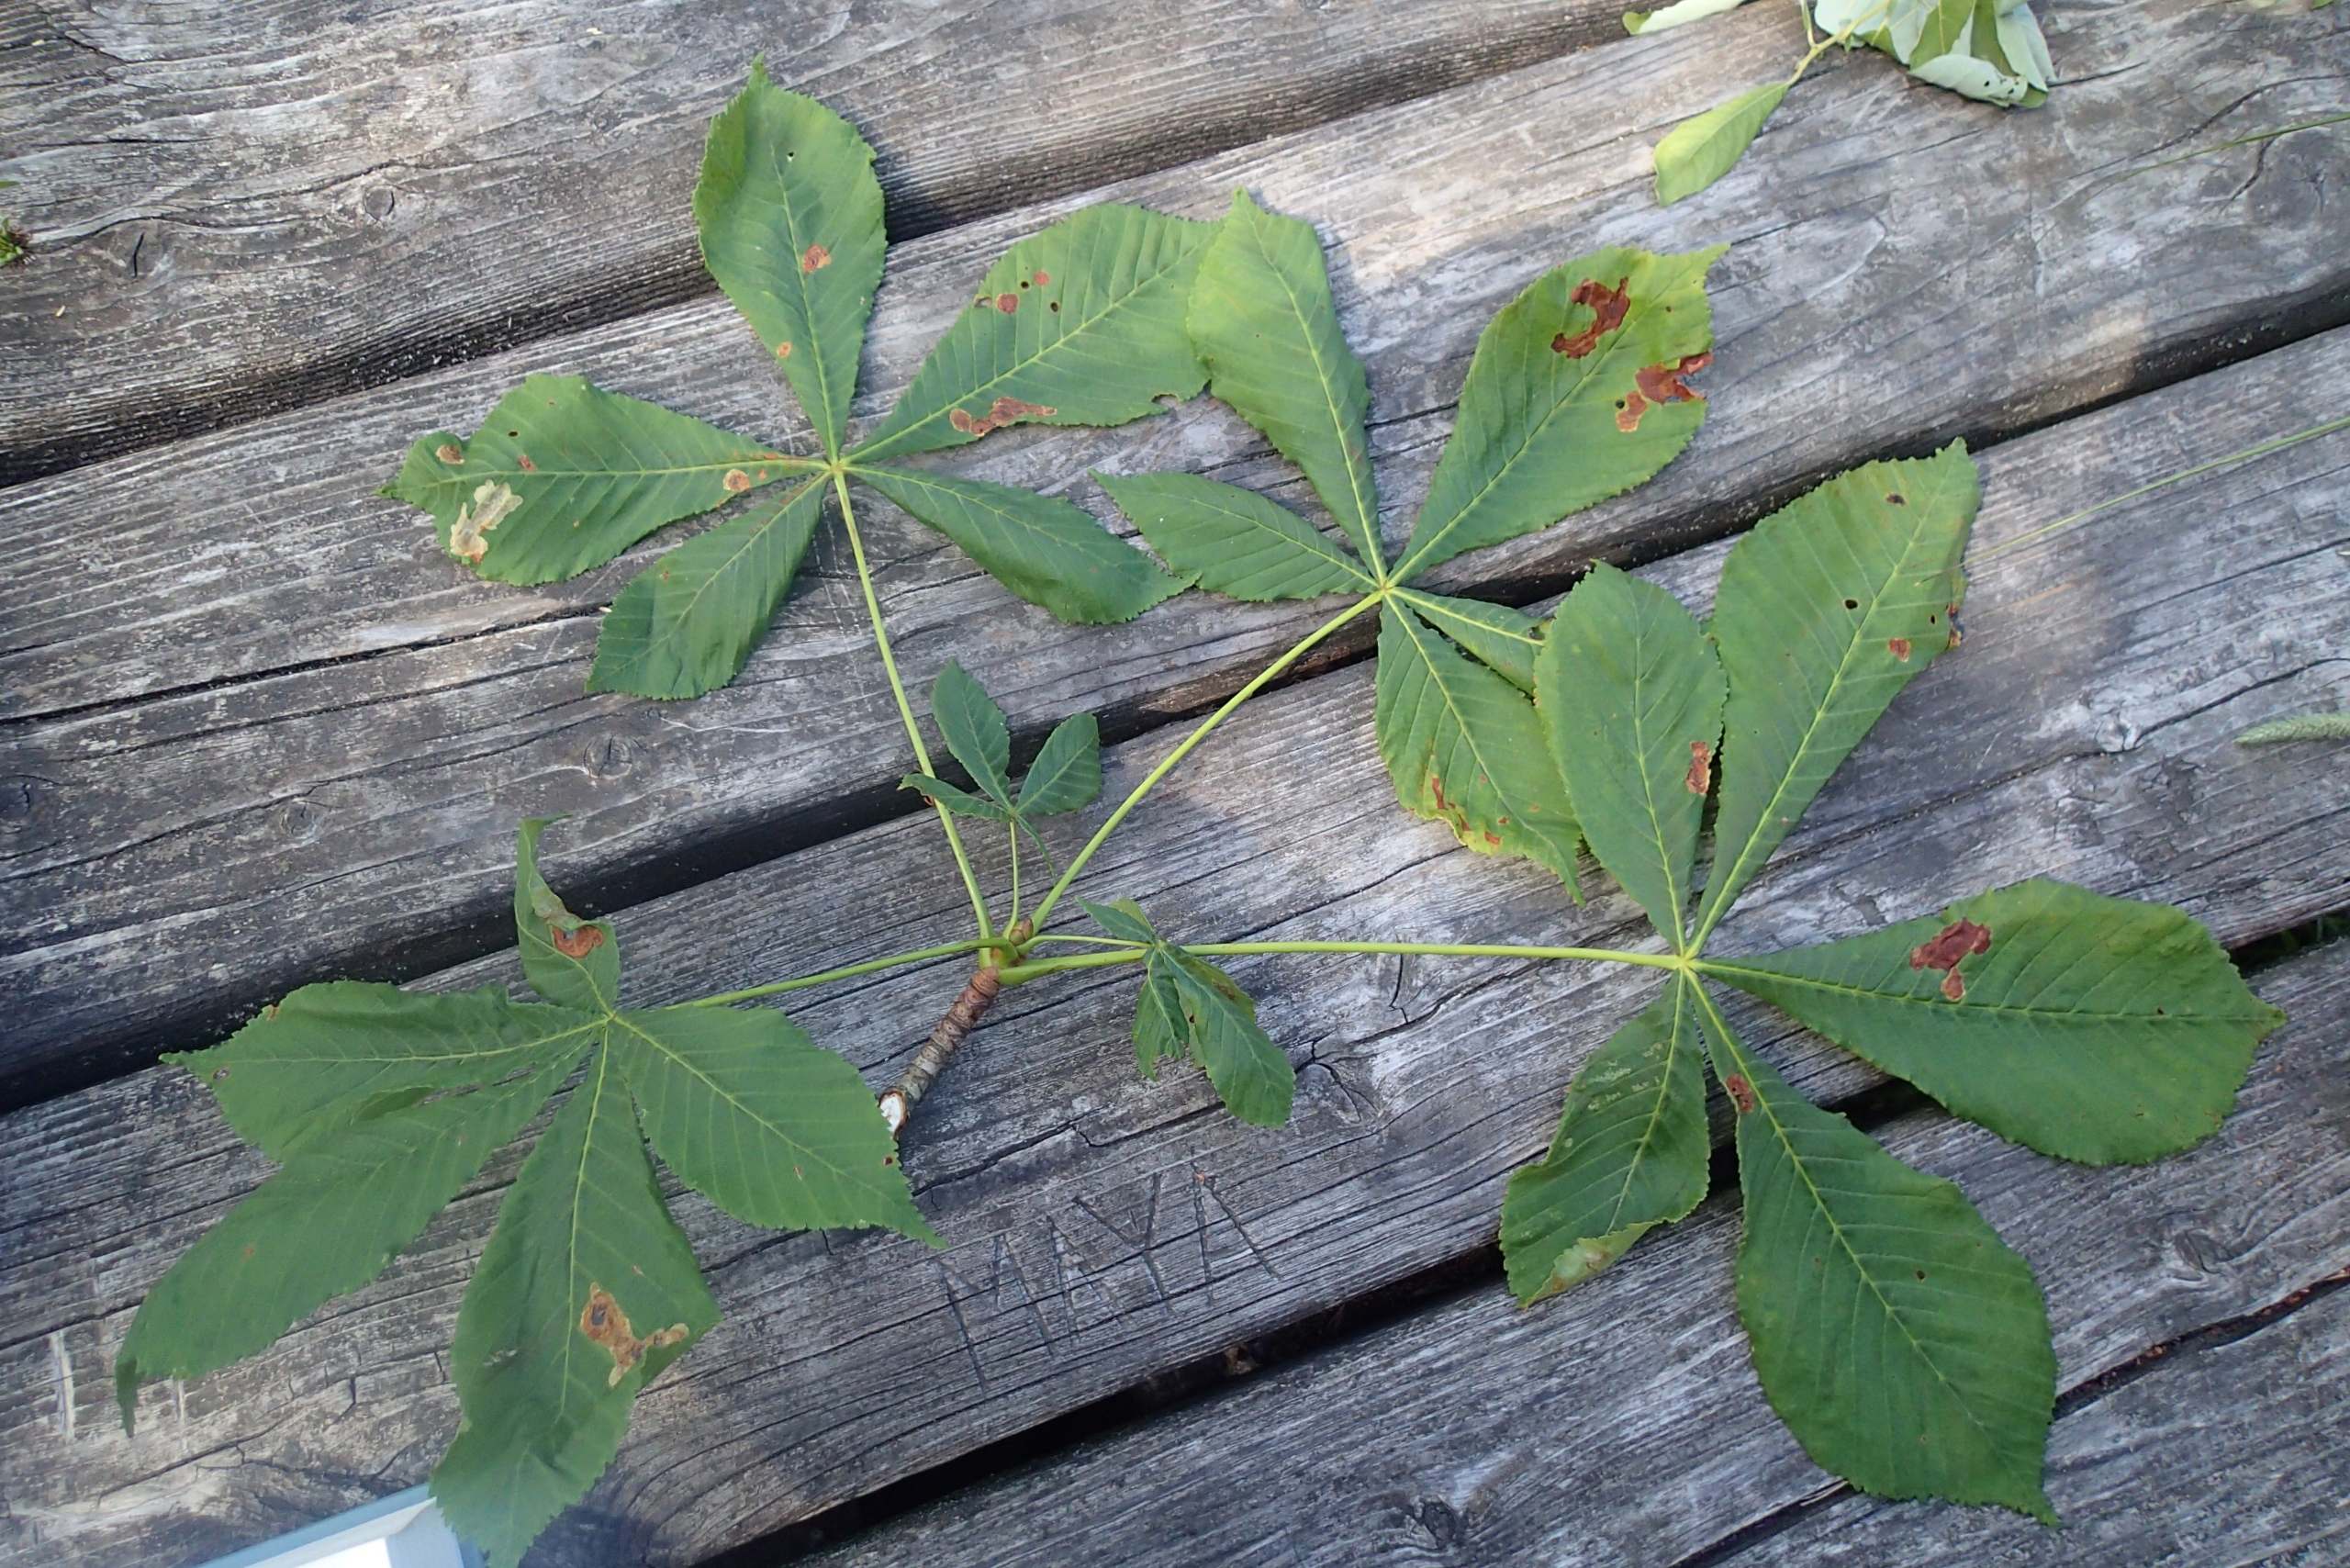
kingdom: Plantae
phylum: Tracheophyta
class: Magnoliopsida
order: Sapindales
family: Sapindaceae
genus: Aesculus
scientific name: Aesculus hippocastanum
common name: Hestekastanie
